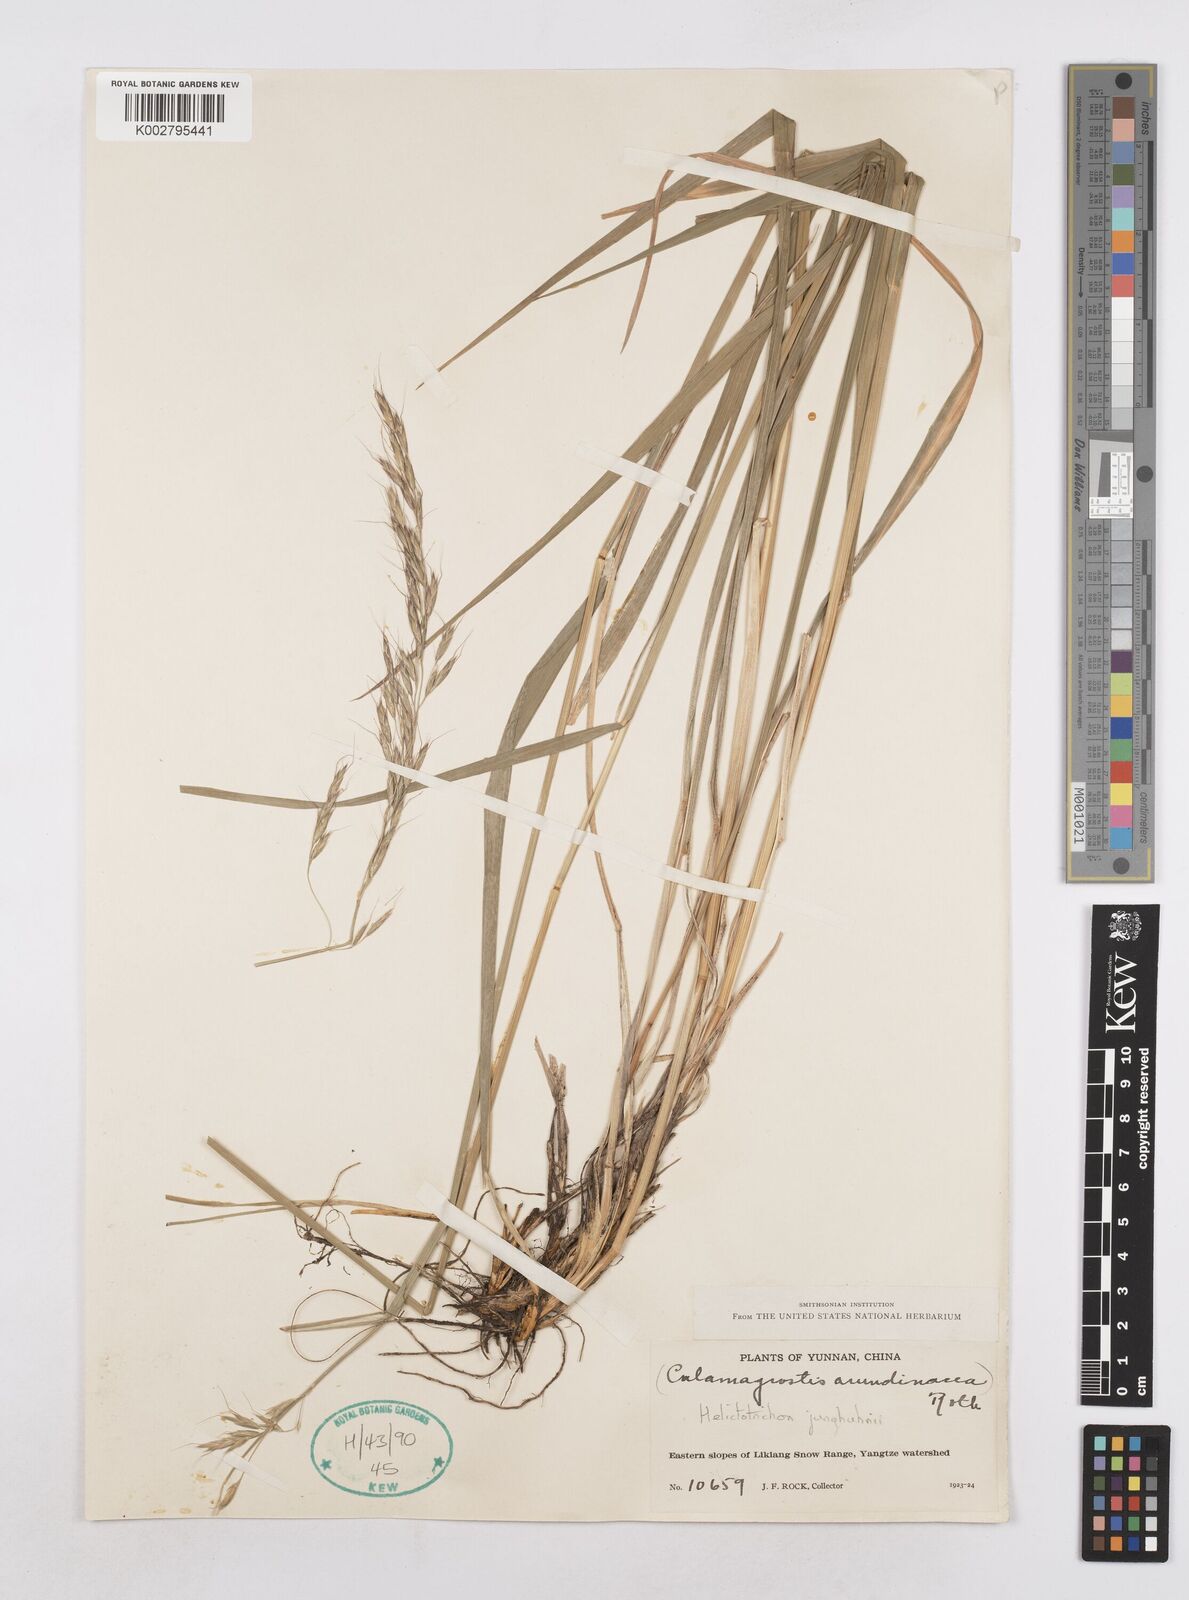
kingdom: Plantae
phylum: Tracheophyta
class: Liliopsida
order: Poales
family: Poaceae
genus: Trisetopsis
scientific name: Trisetopsis junghuhnii
